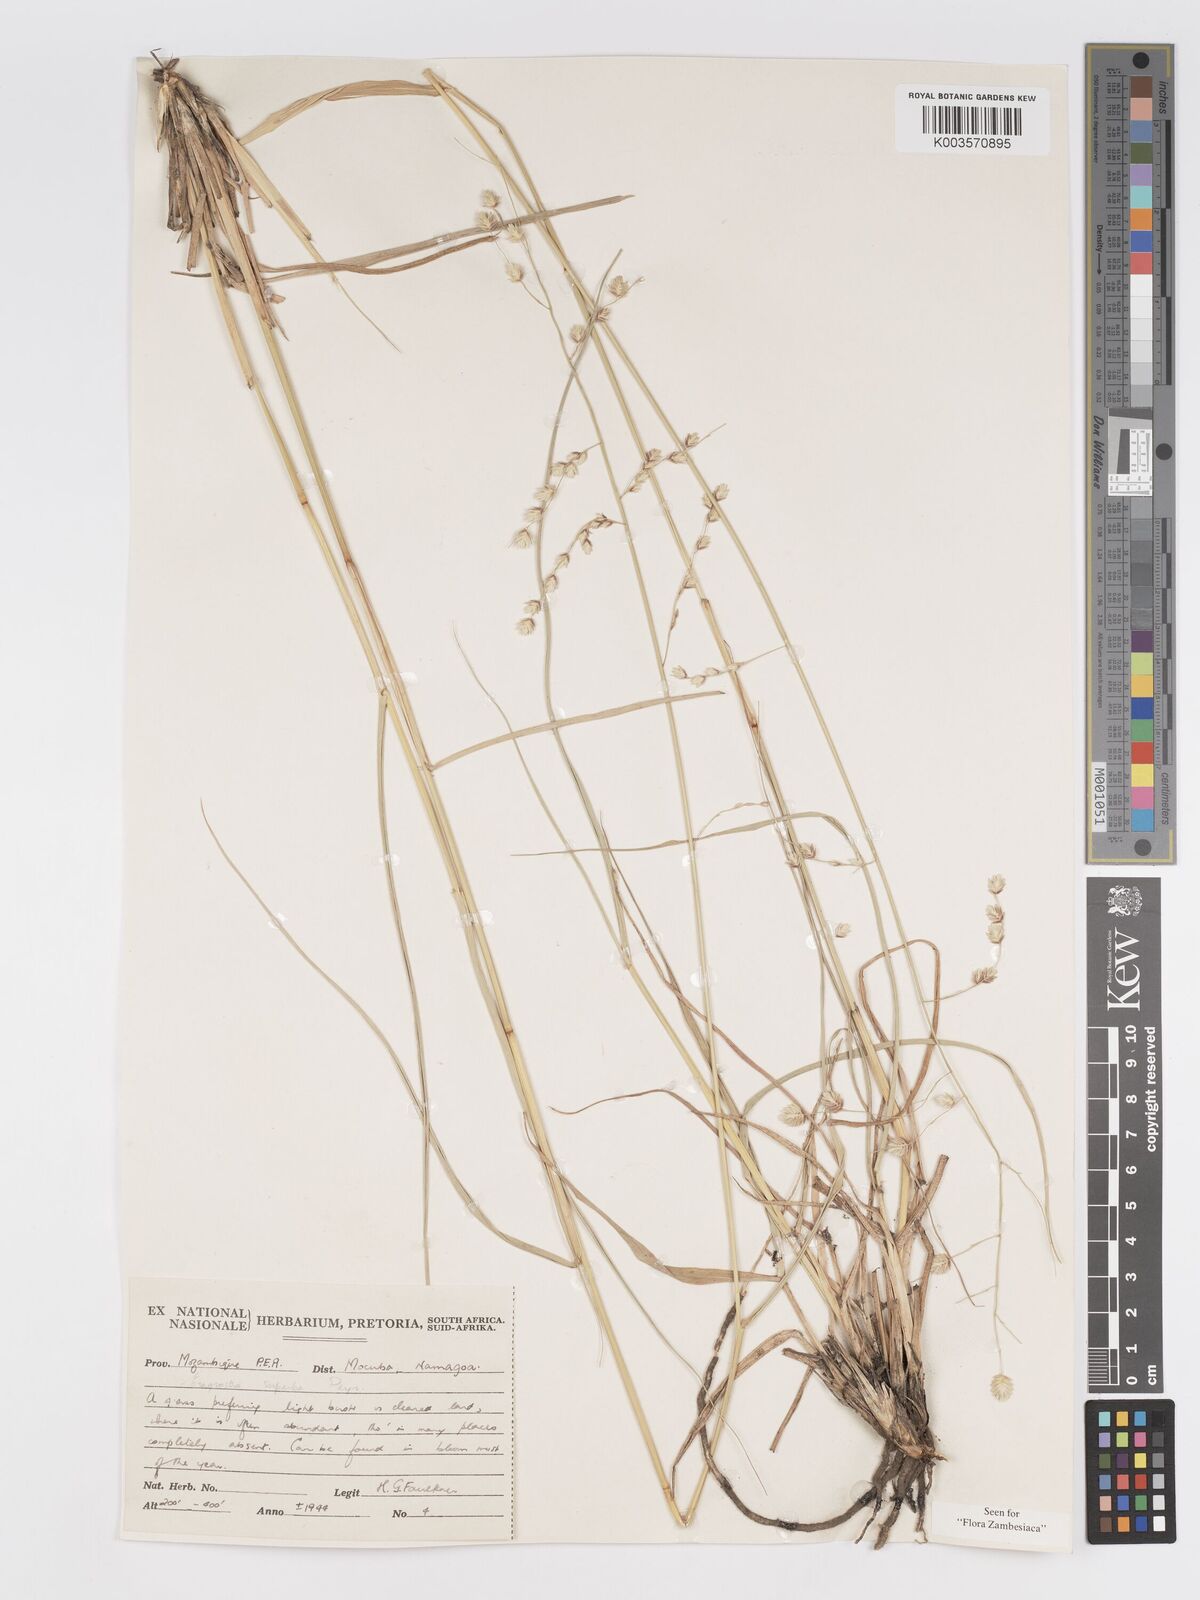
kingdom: Plantae
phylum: Tracheophyta
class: Liliopsida
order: Poales
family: Poaceae
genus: Eragrostis
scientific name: Eragrostis superba
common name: Wilman lovegrass
